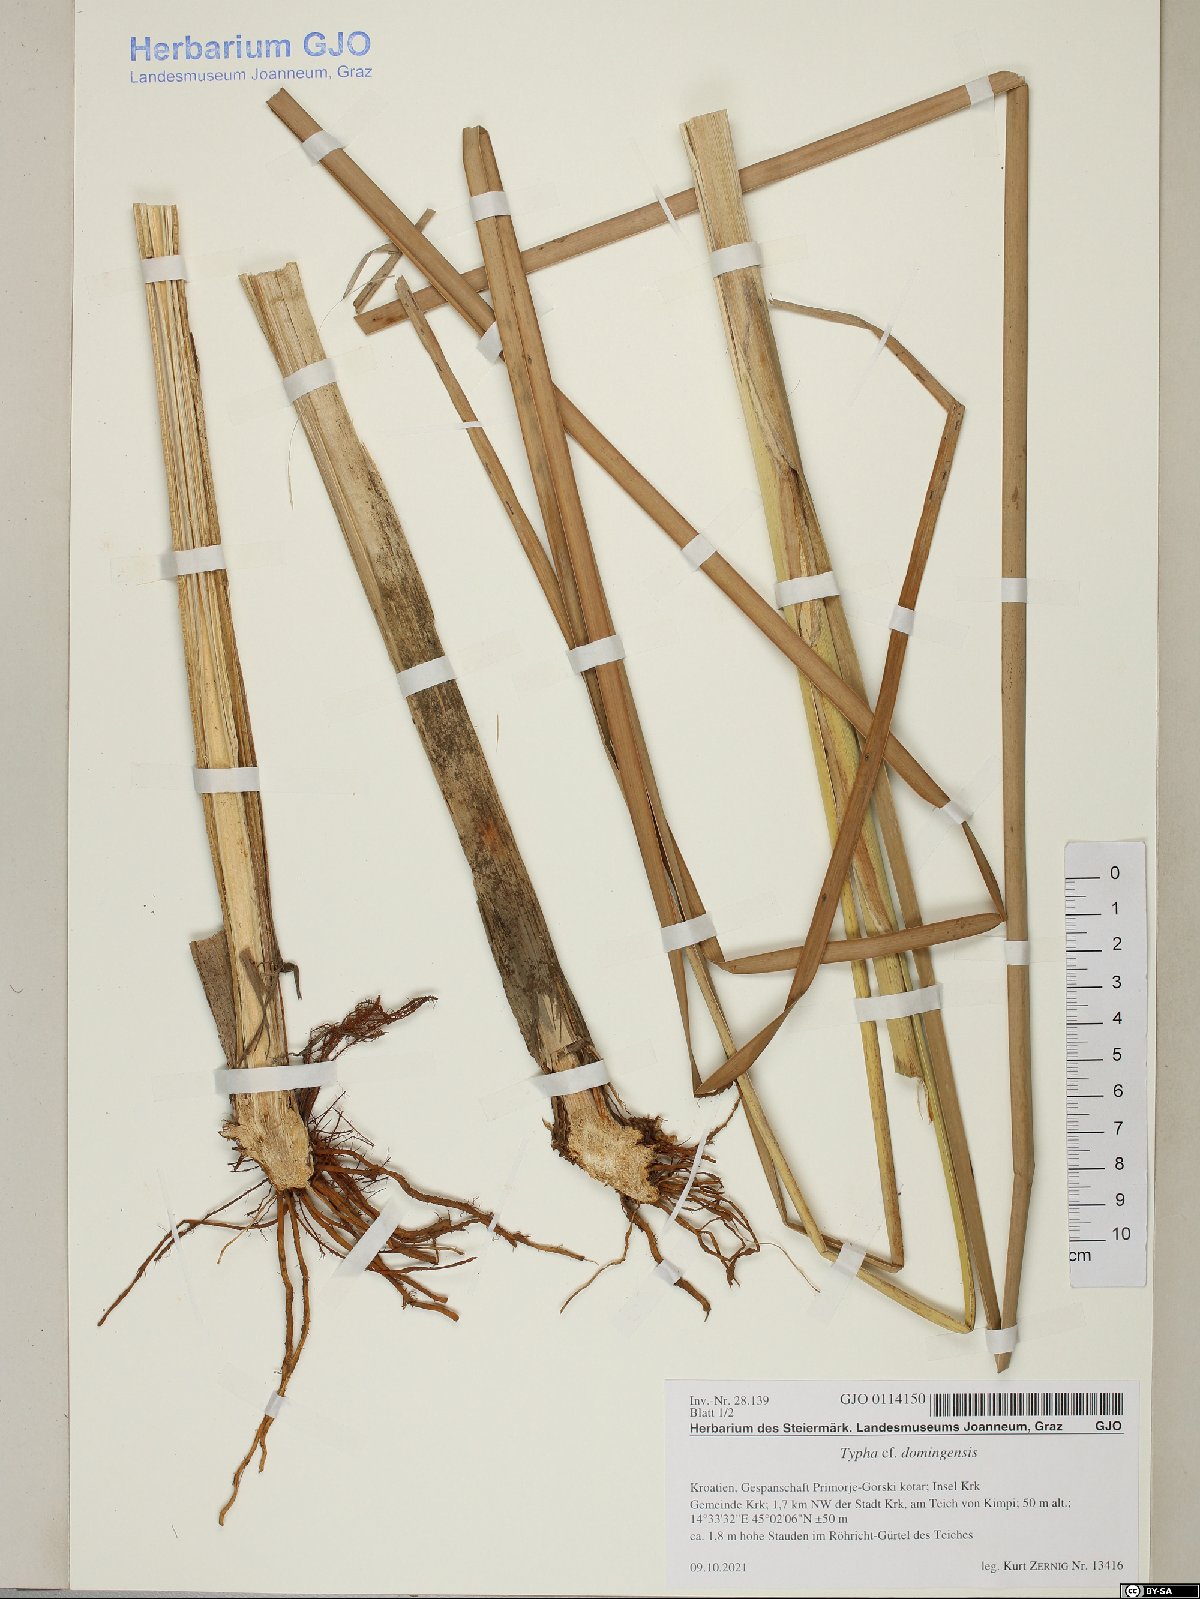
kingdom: Plantae
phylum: Tracheophyta
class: Liliopsida
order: Poales
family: Typhaceae
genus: Typha
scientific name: Typha angustifolia
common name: Lesser bulrush
